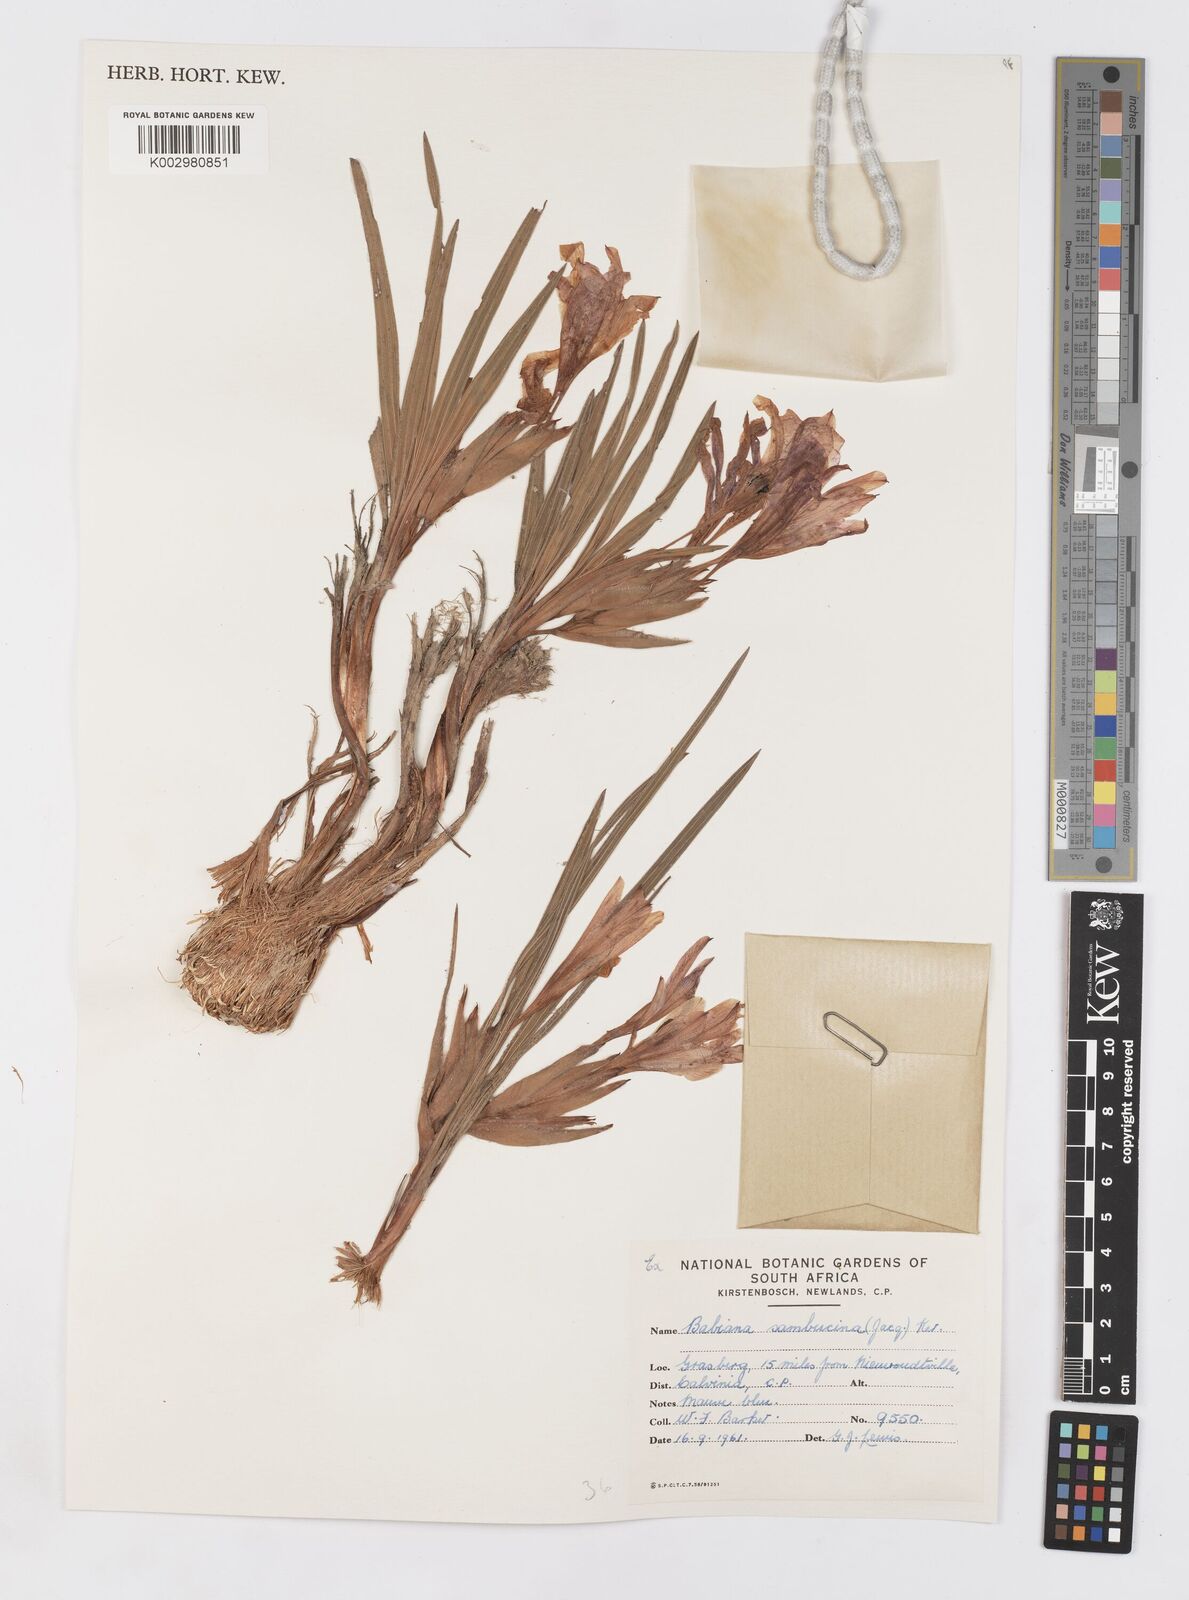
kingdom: Plantae
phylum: Tracheophyta
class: Liliopsida
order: Asparagales
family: Iridaceae
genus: Babiana
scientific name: Babiana sambucina
